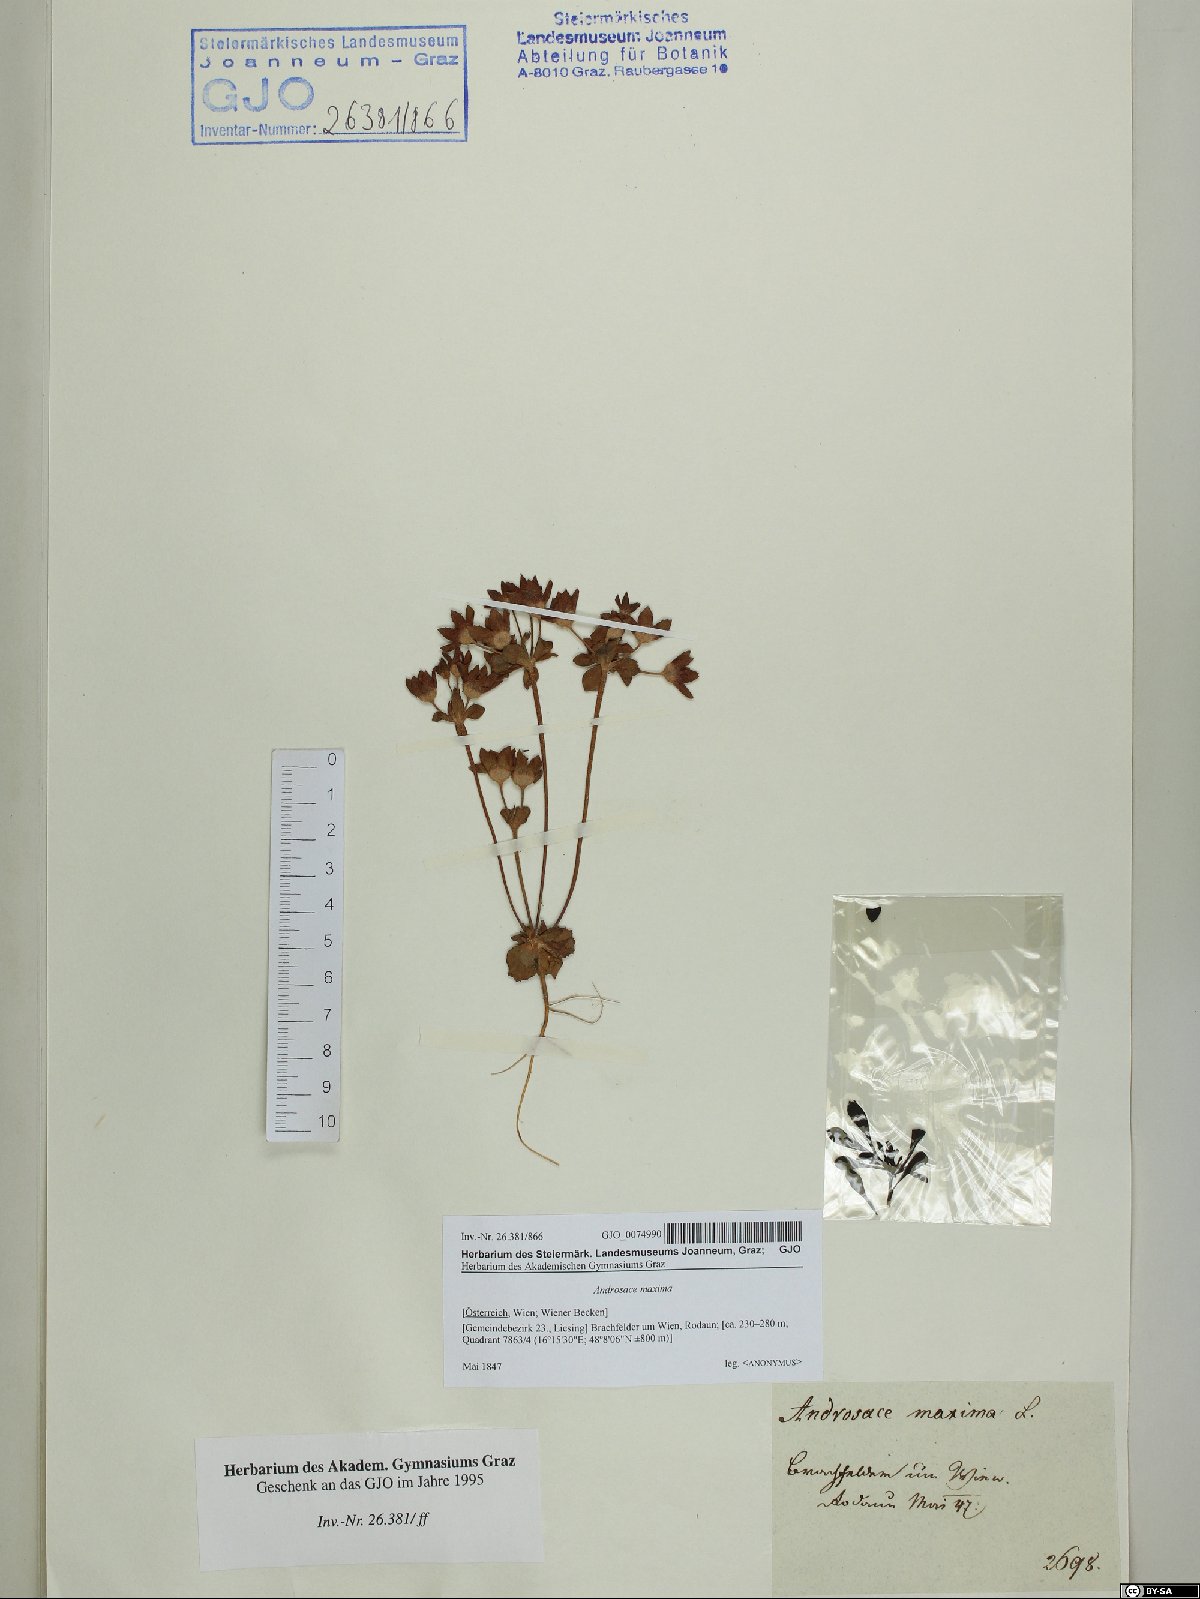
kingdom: Plantae
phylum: Tracheophyta
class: Magnoliopsida
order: Ericales
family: Primulaceae
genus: Androsace
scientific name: Androsace maxima
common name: Annual androsace
